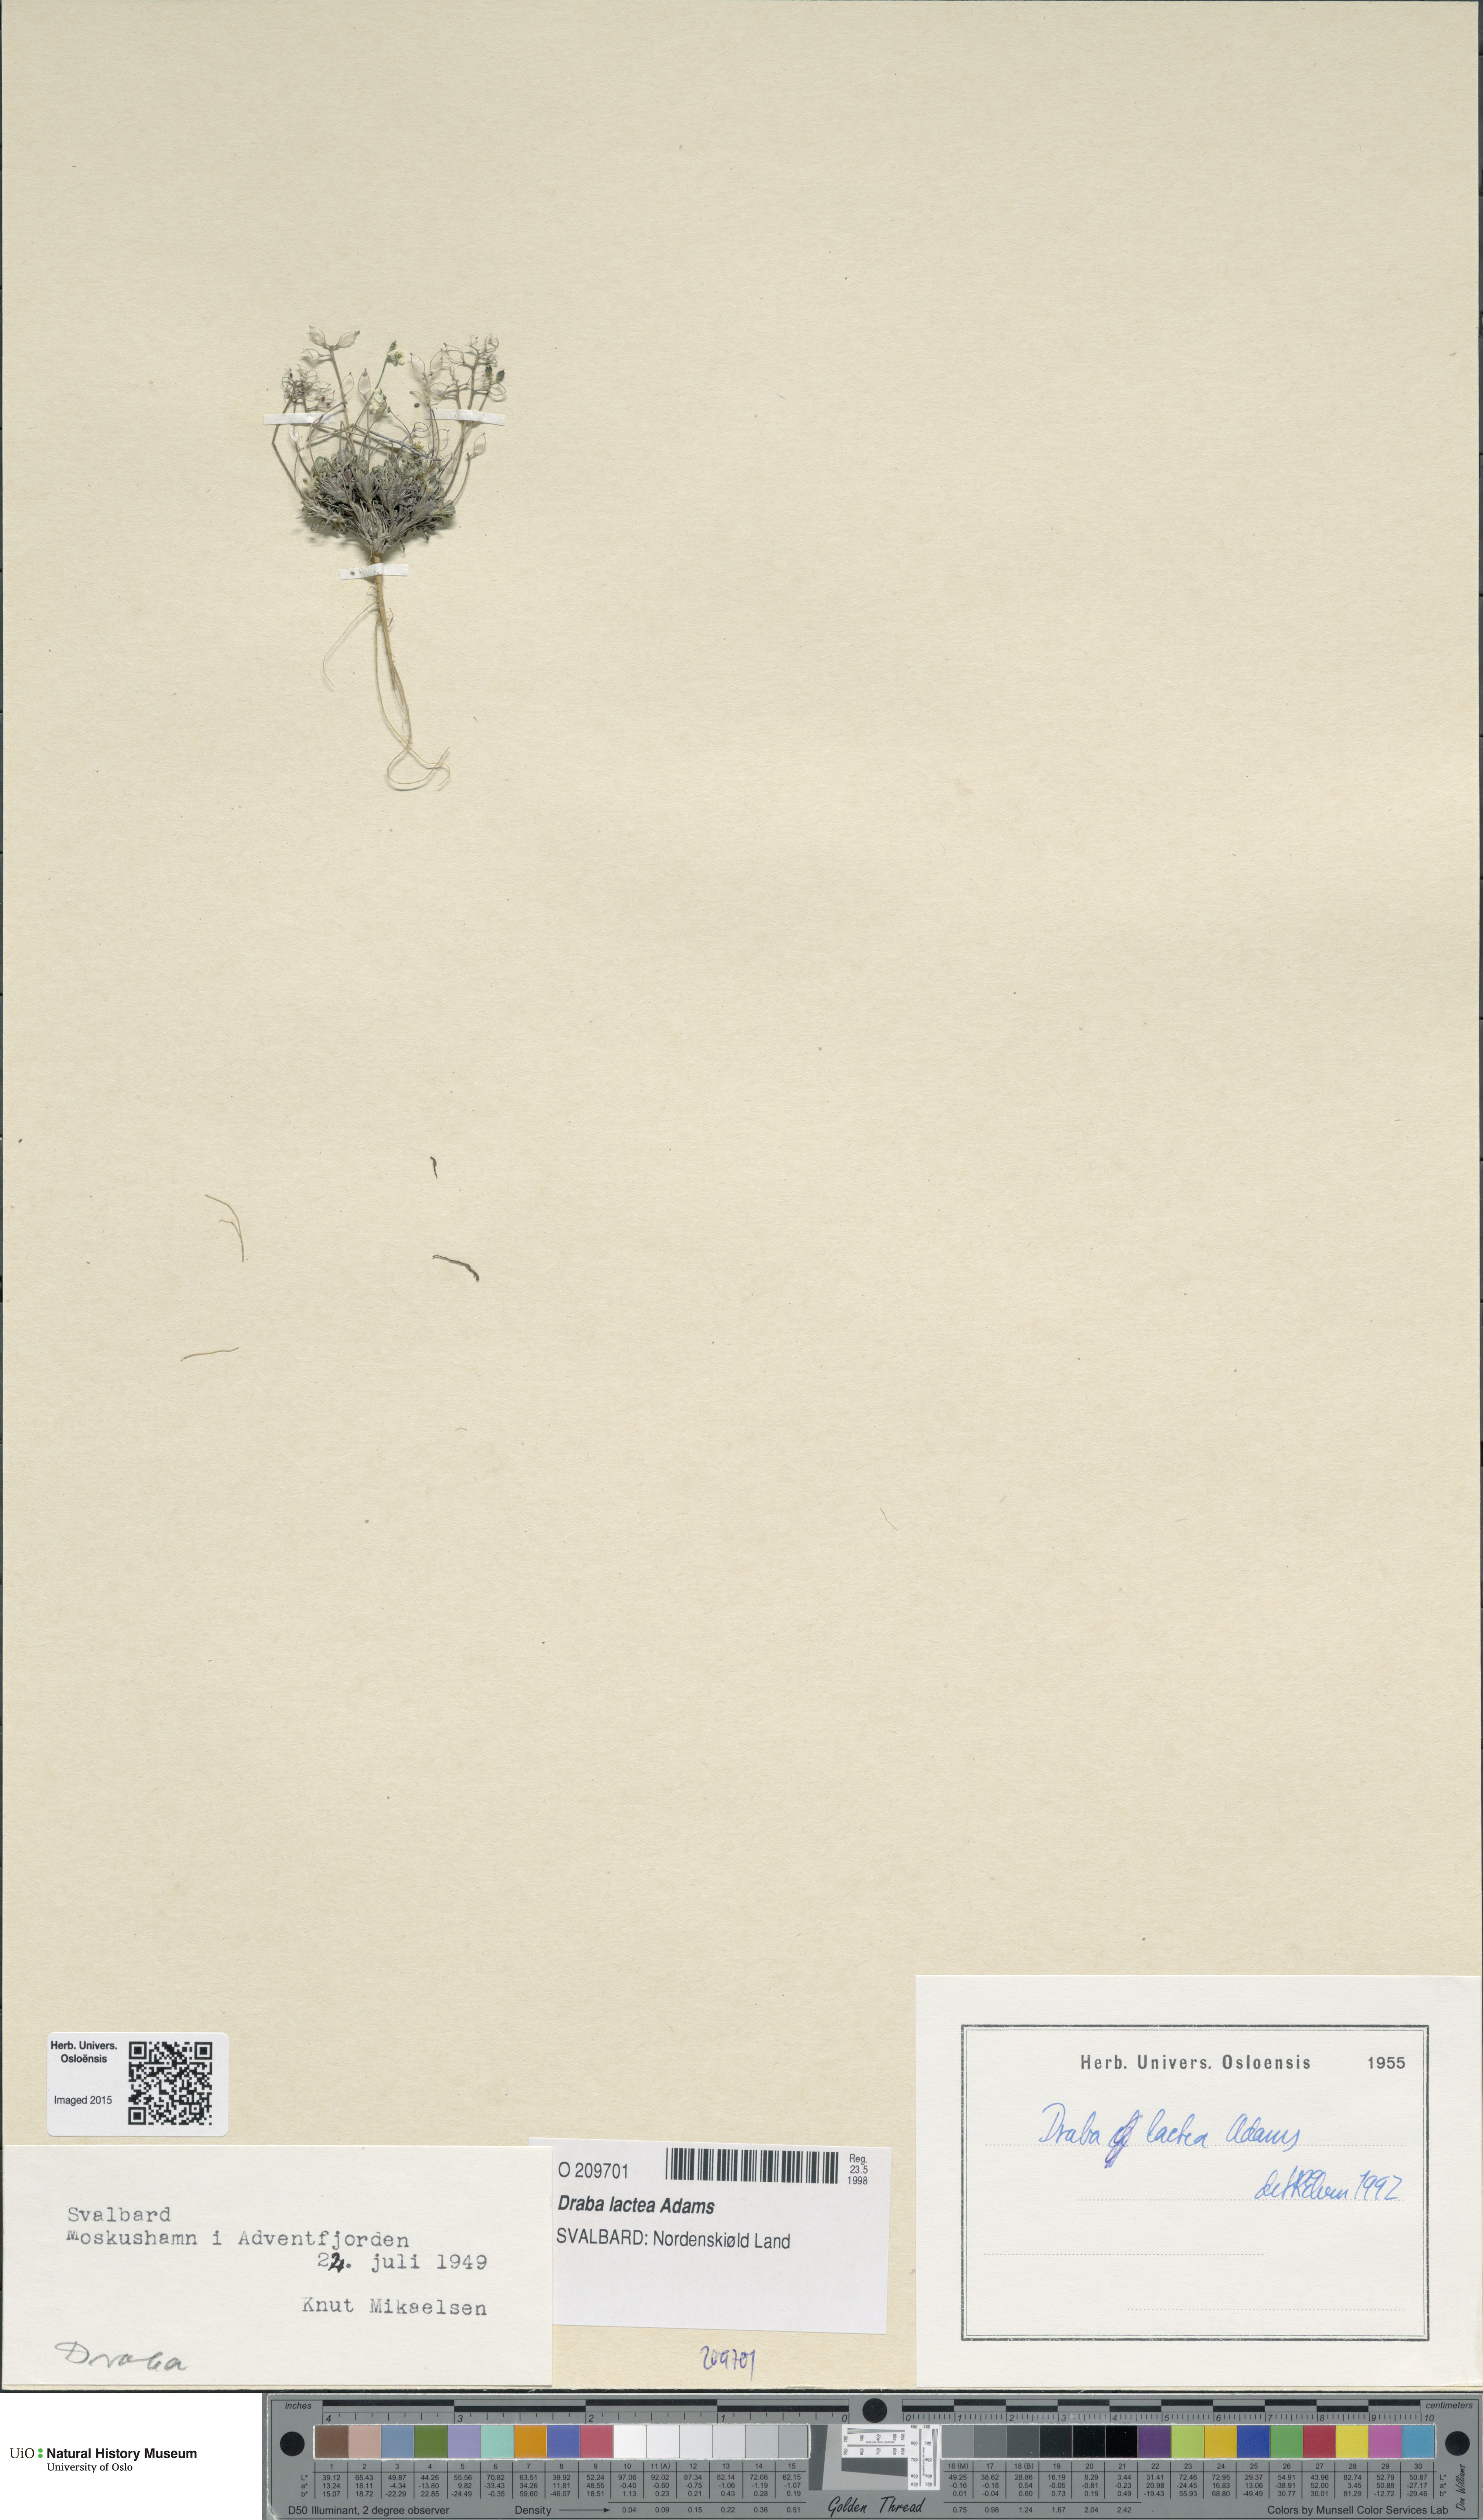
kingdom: Plantae
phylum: Tracheophyta
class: Magnoliopsida
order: Brassicales
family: Brassicaceae
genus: Draba
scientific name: Draba lactea
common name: Milky draba
